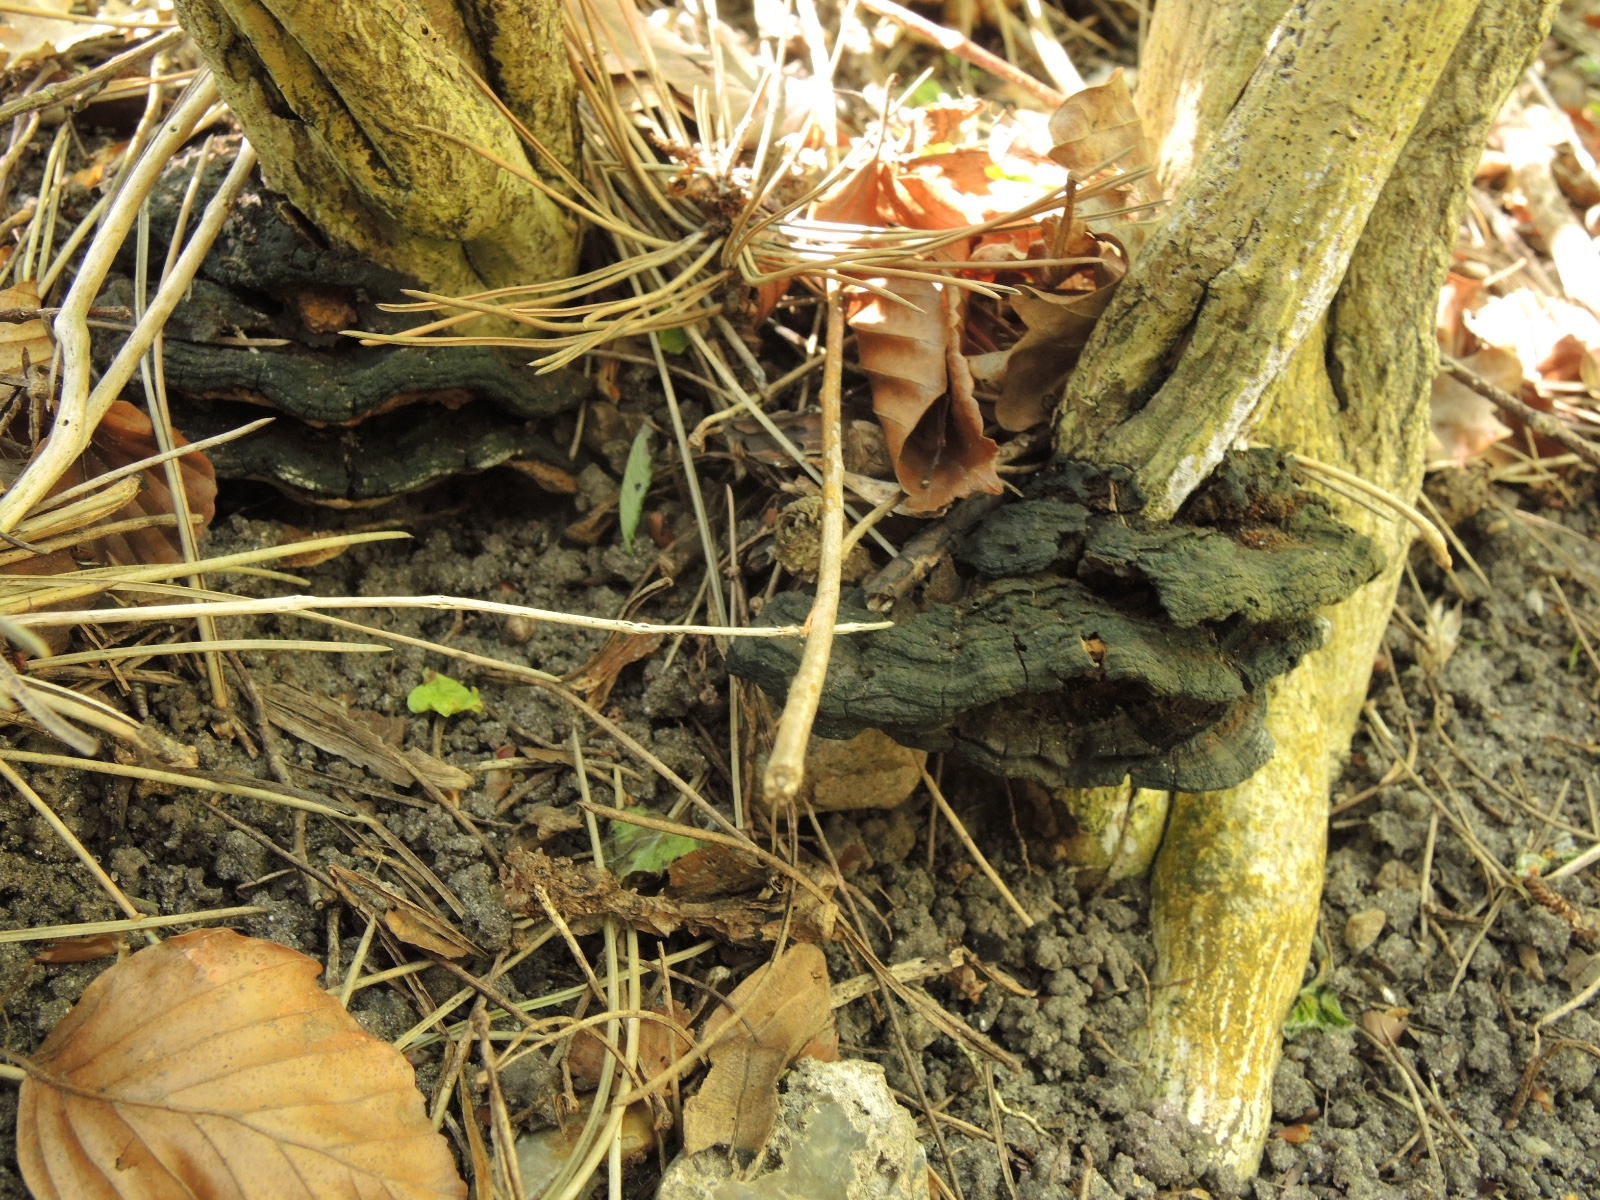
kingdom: Fungi
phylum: Basidiomycota
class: Agaricomycetes
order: Hymenochaetales
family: Hymenochaetaceae
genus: Phylloporia
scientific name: Phylloporia ribis
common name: ribs-ildporesvamp
